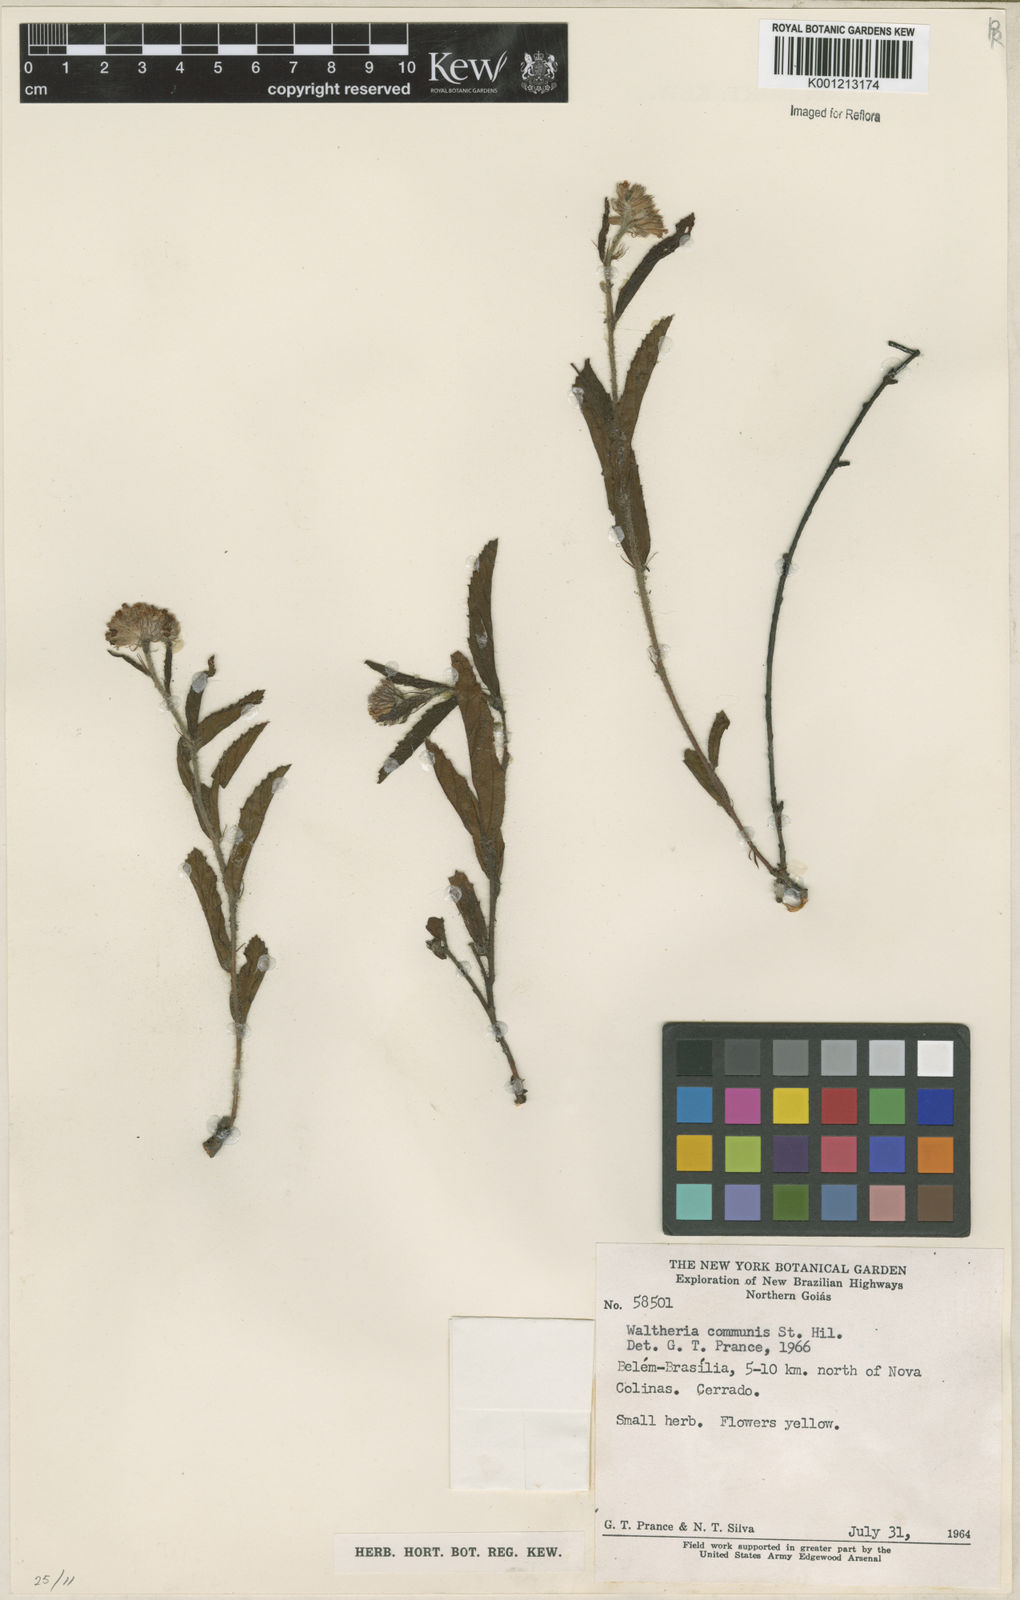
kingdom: Plantae
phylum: Tracheophyta
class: Magnoliopsida
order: Malvales
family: Malvaceae
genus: Waltheria
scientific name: Waltheria communis
